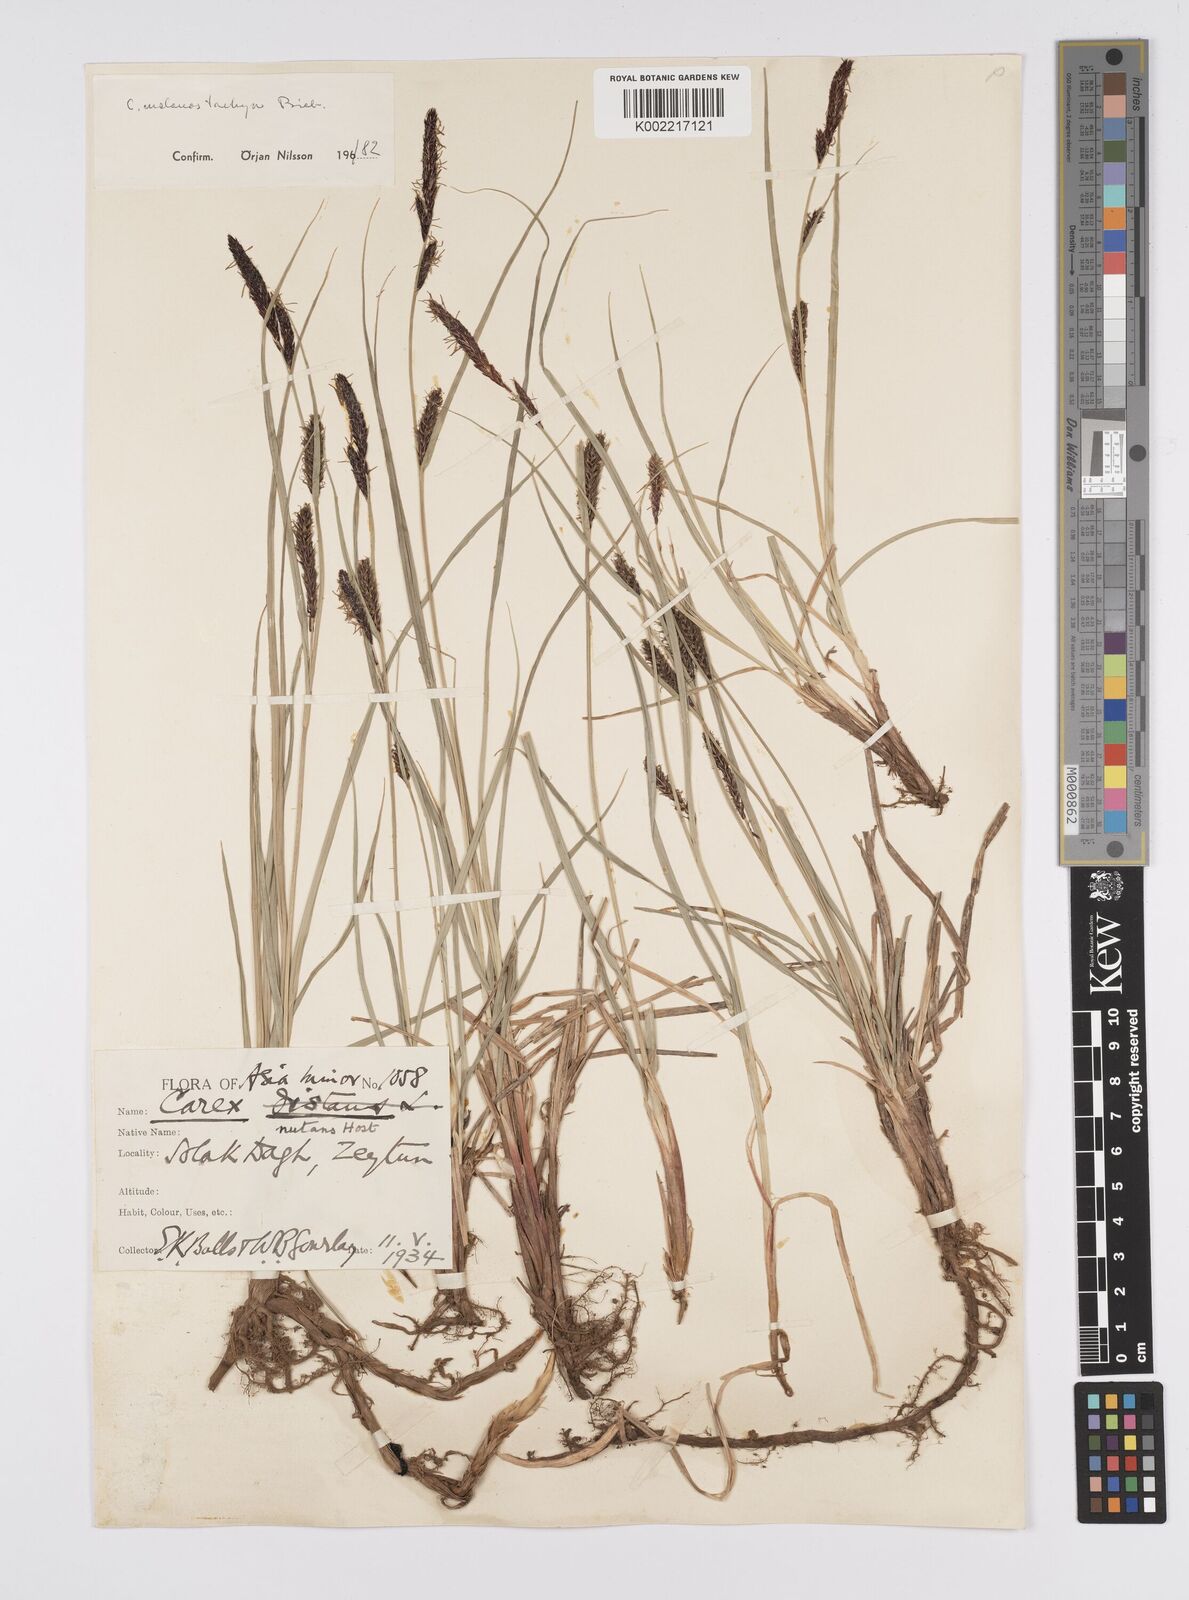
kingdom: Plantae
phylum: Tracheophyta
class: Liliopsida
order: Poales
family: Cyperaceae
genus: Carex
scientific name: Carex melanostachya
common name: Black-spiked sedge
